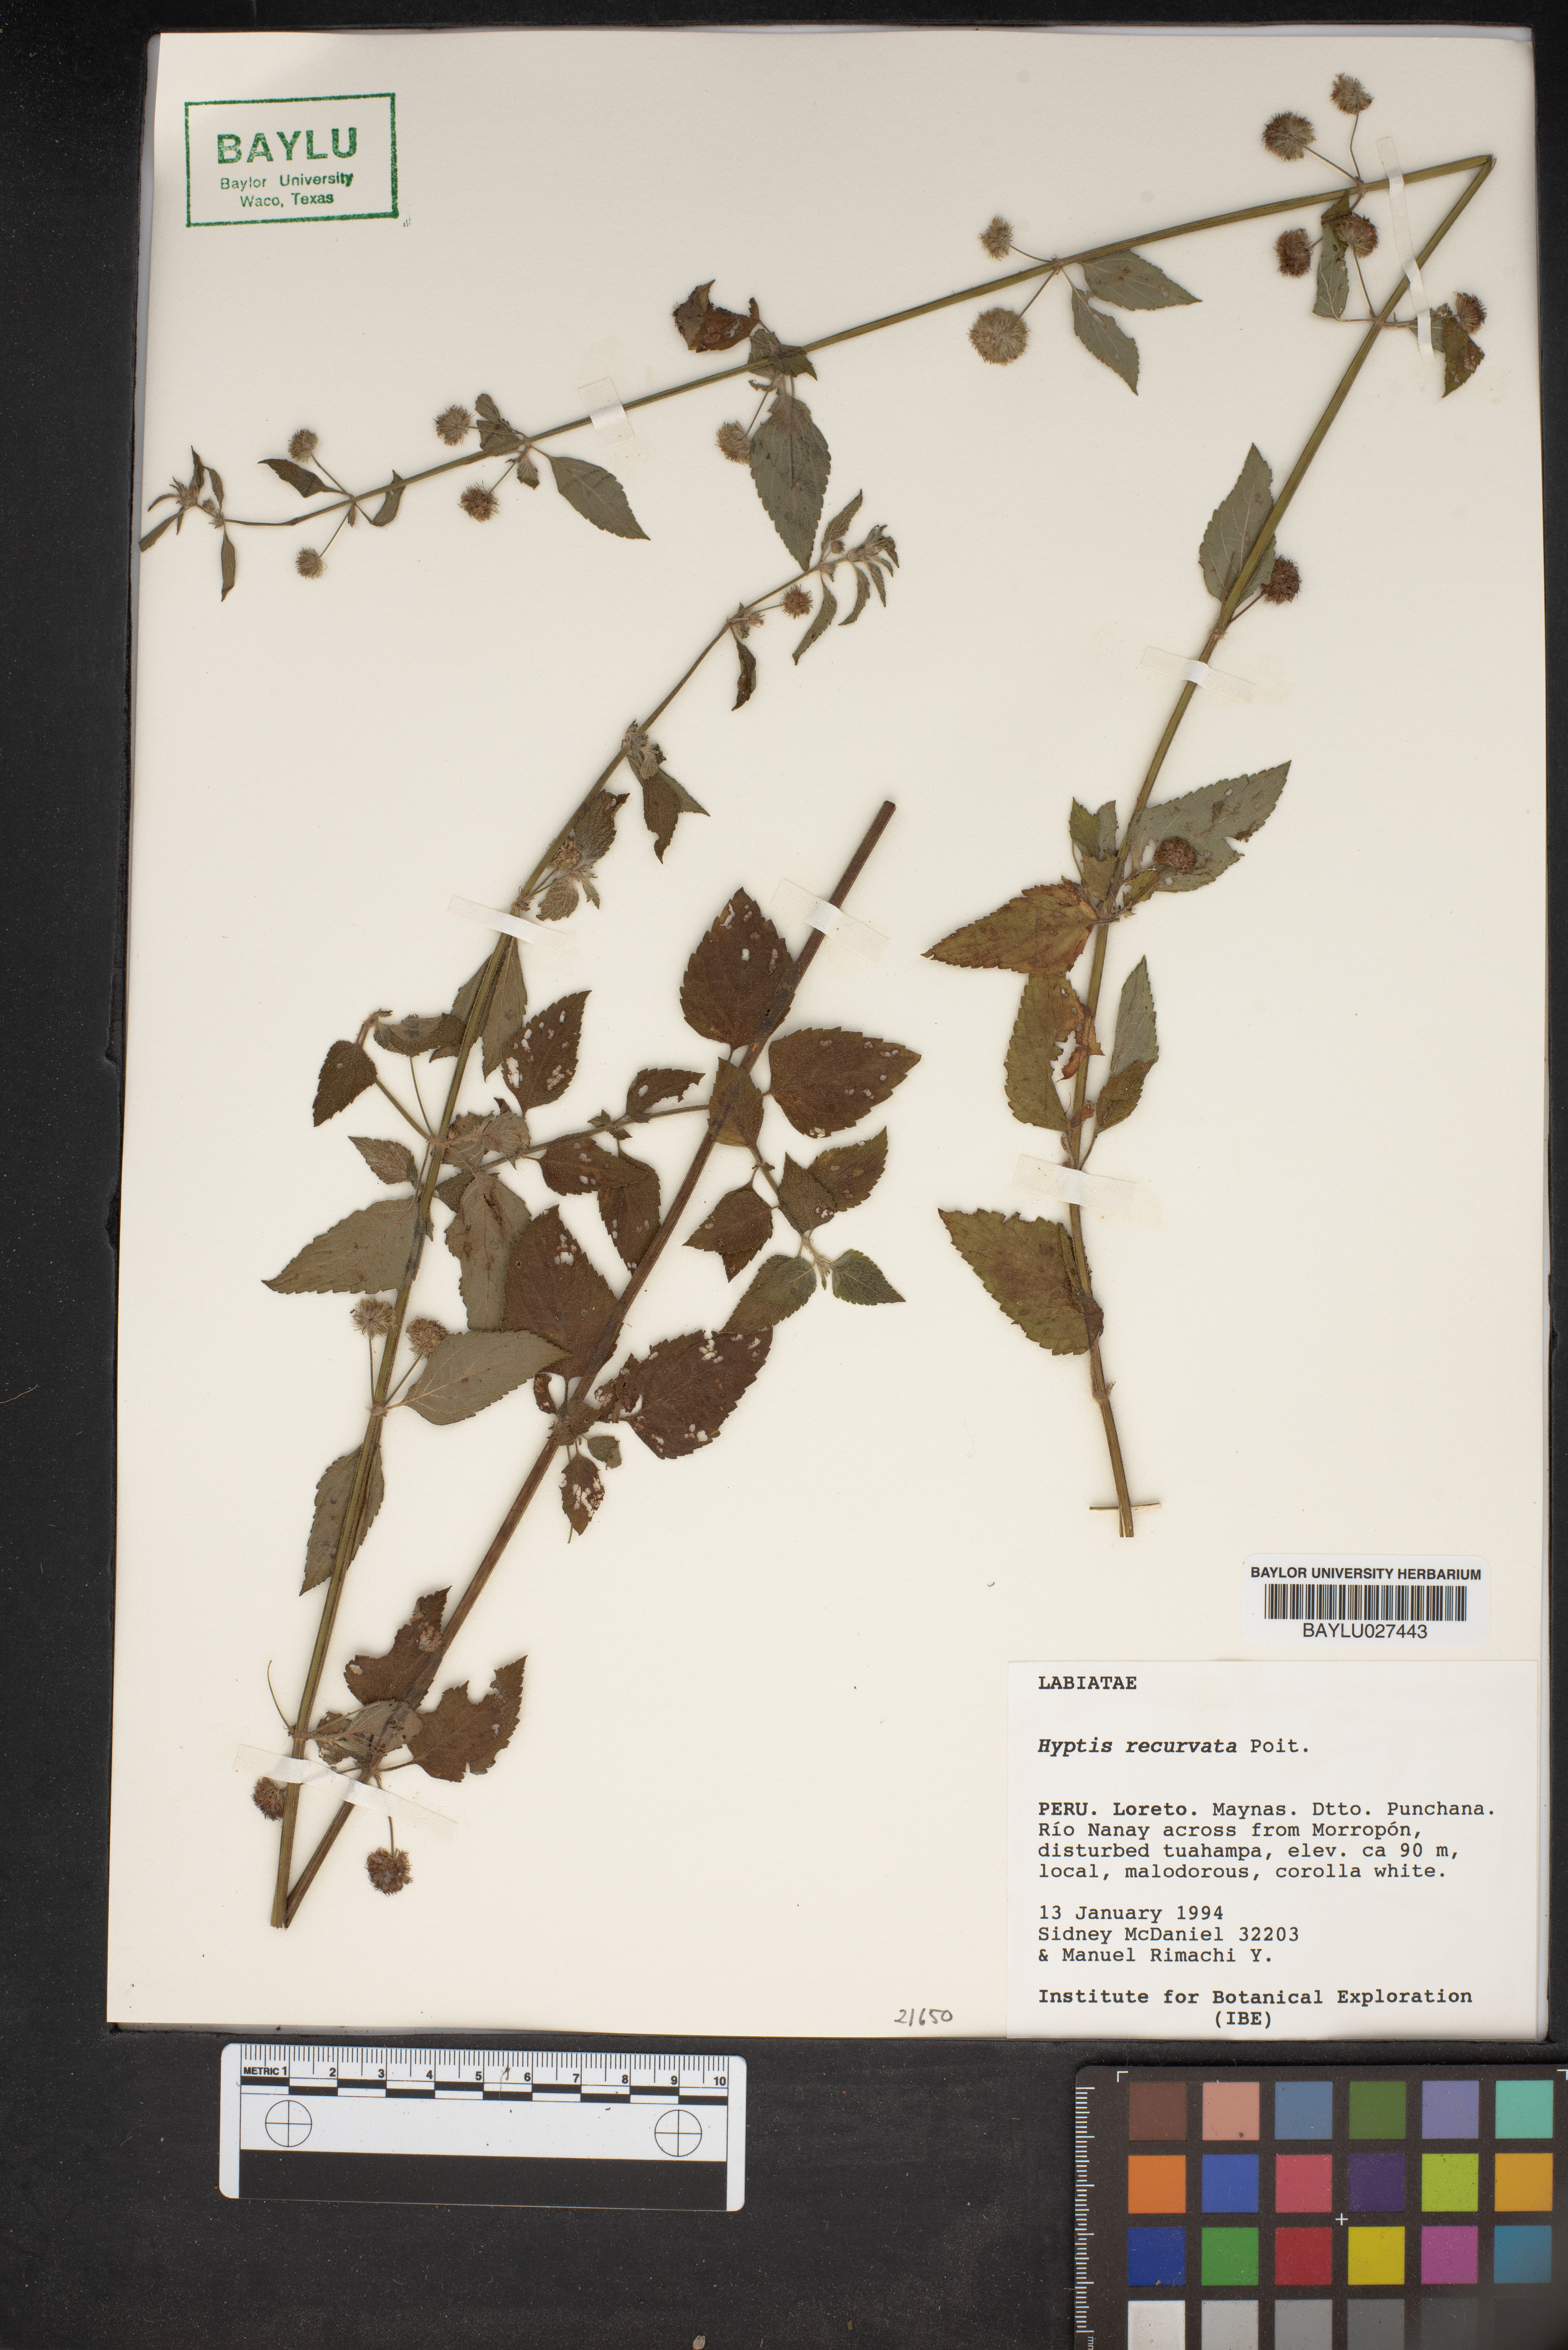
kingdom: Plantae
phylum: Tracheophyta
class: Magnoliopsida
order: Lamiales
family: Lamiaceae
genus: Hyptis
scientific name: Hyptis recurvata
